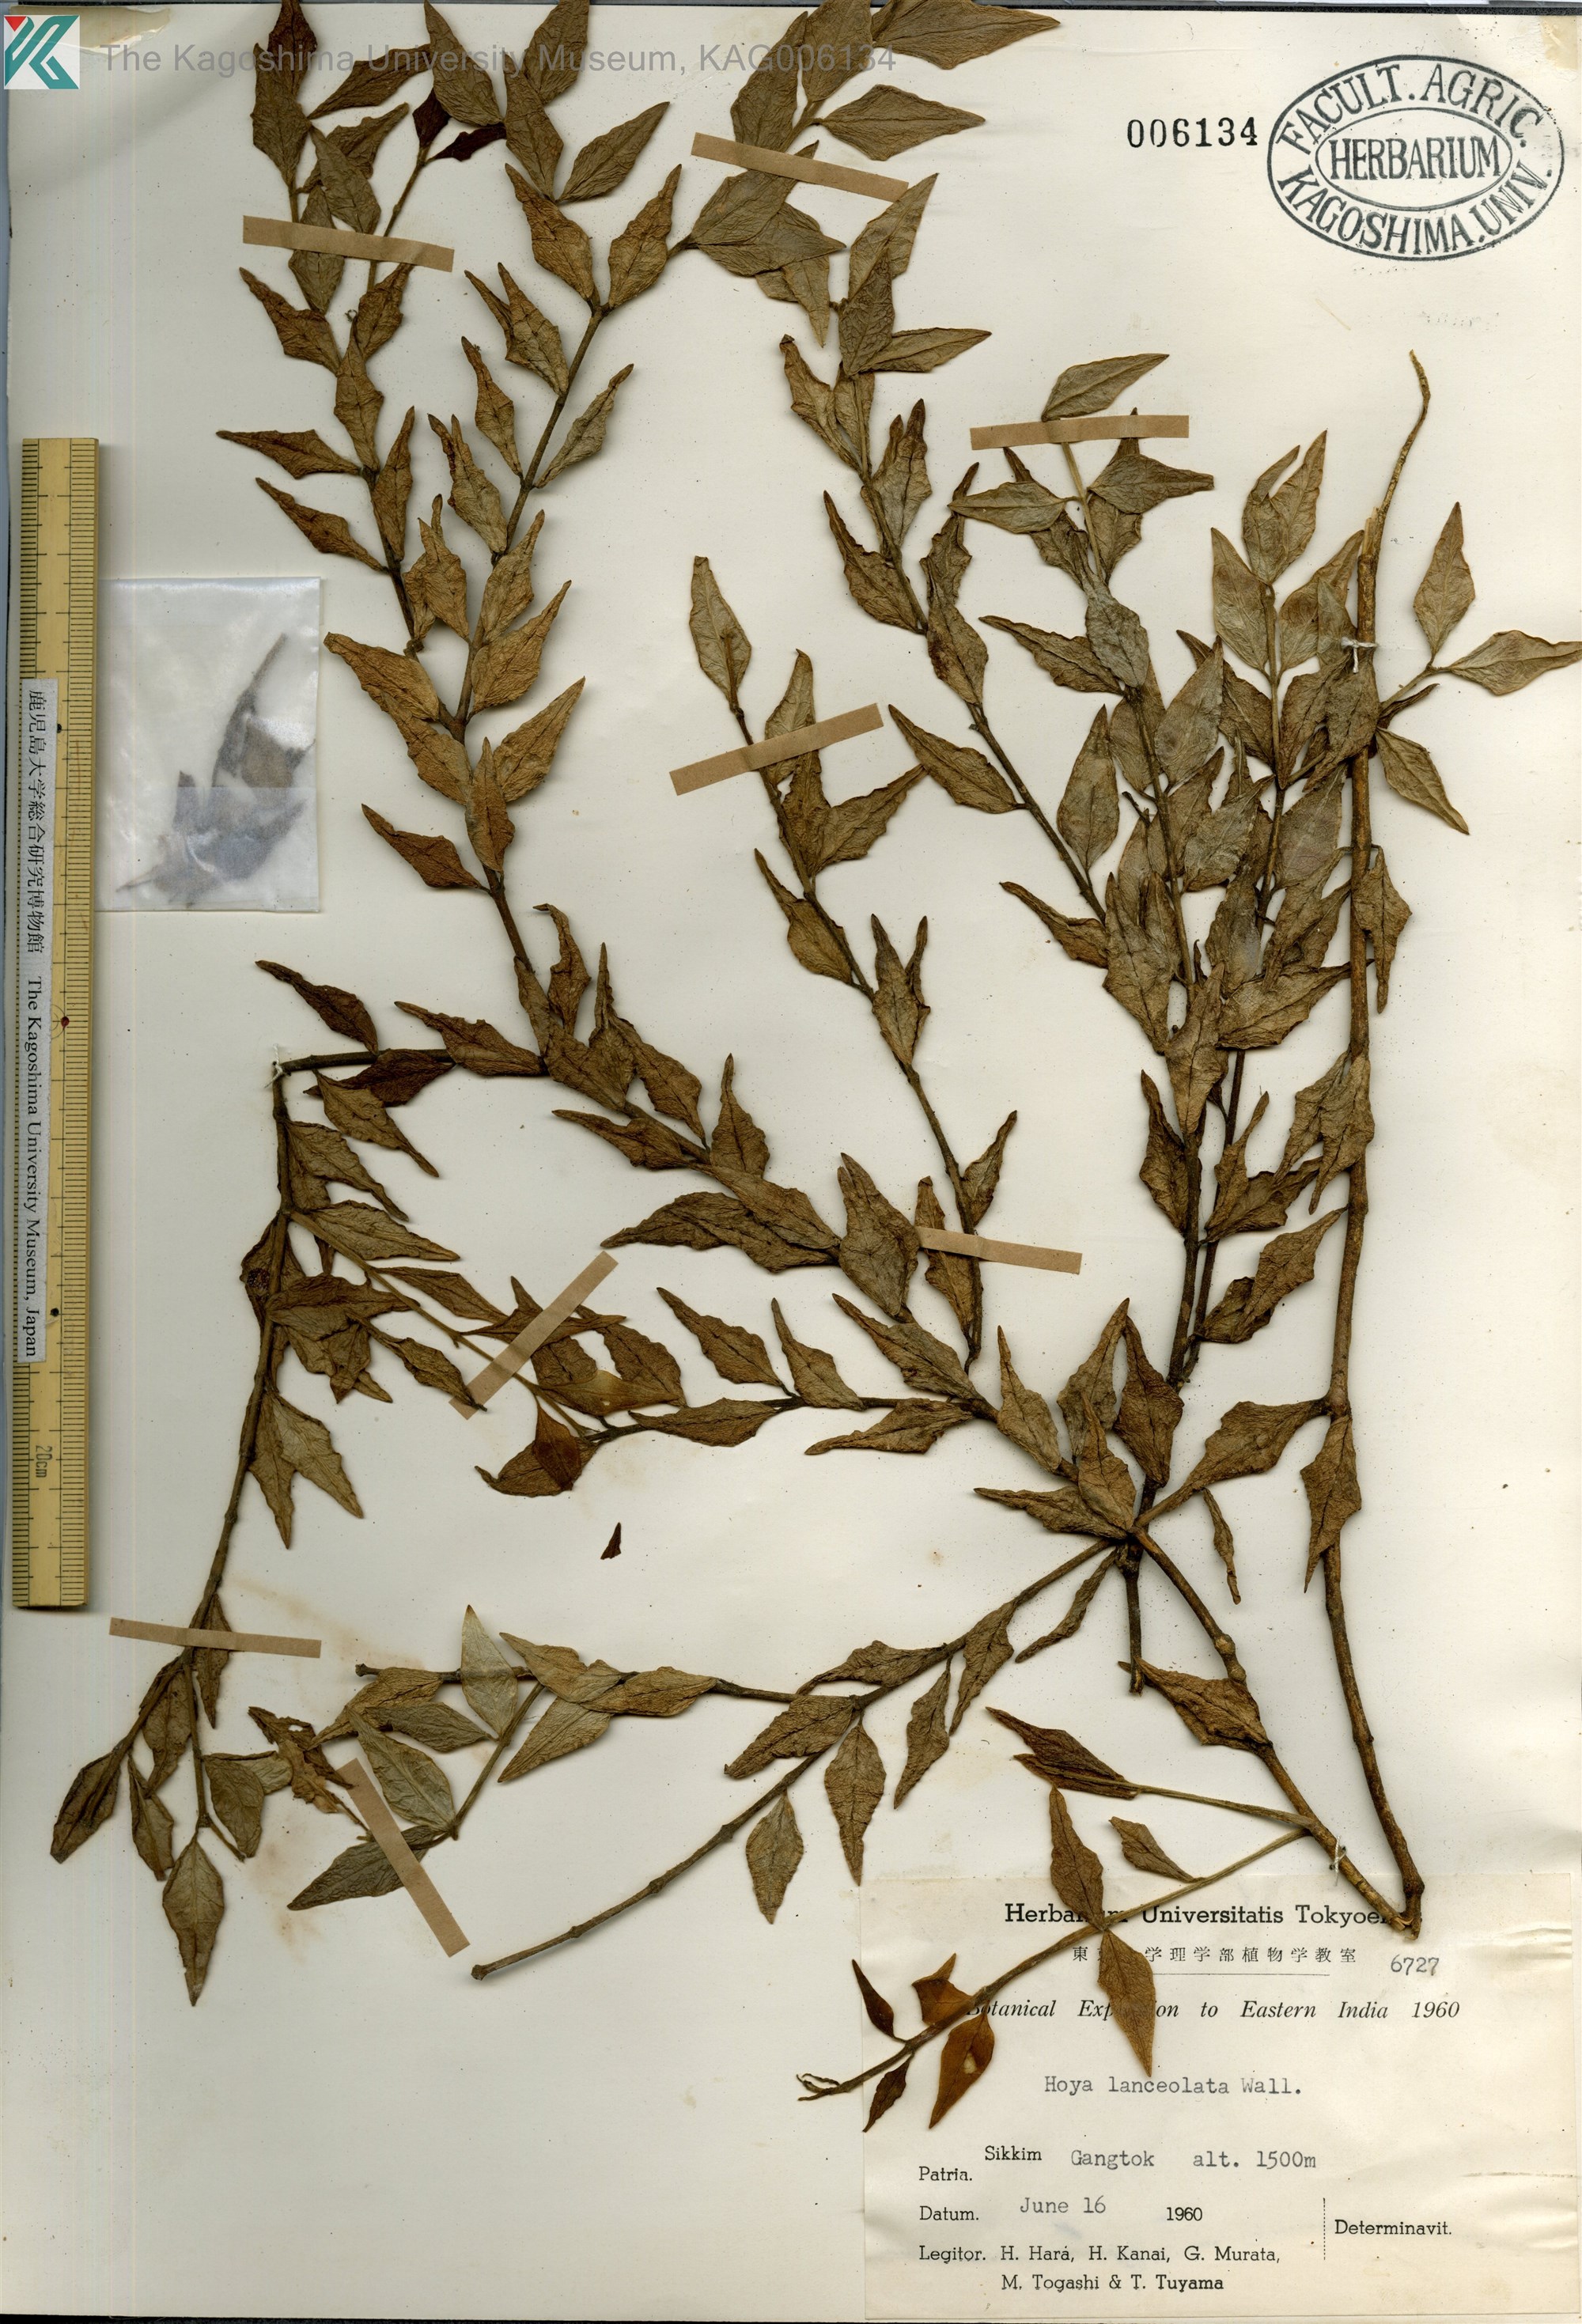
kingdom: Plantae
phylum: Tracheophyta
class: Magnoliopsida
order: Gentianales
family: Apocynaceae
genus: Hoya
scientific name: Hoya lanceolata
